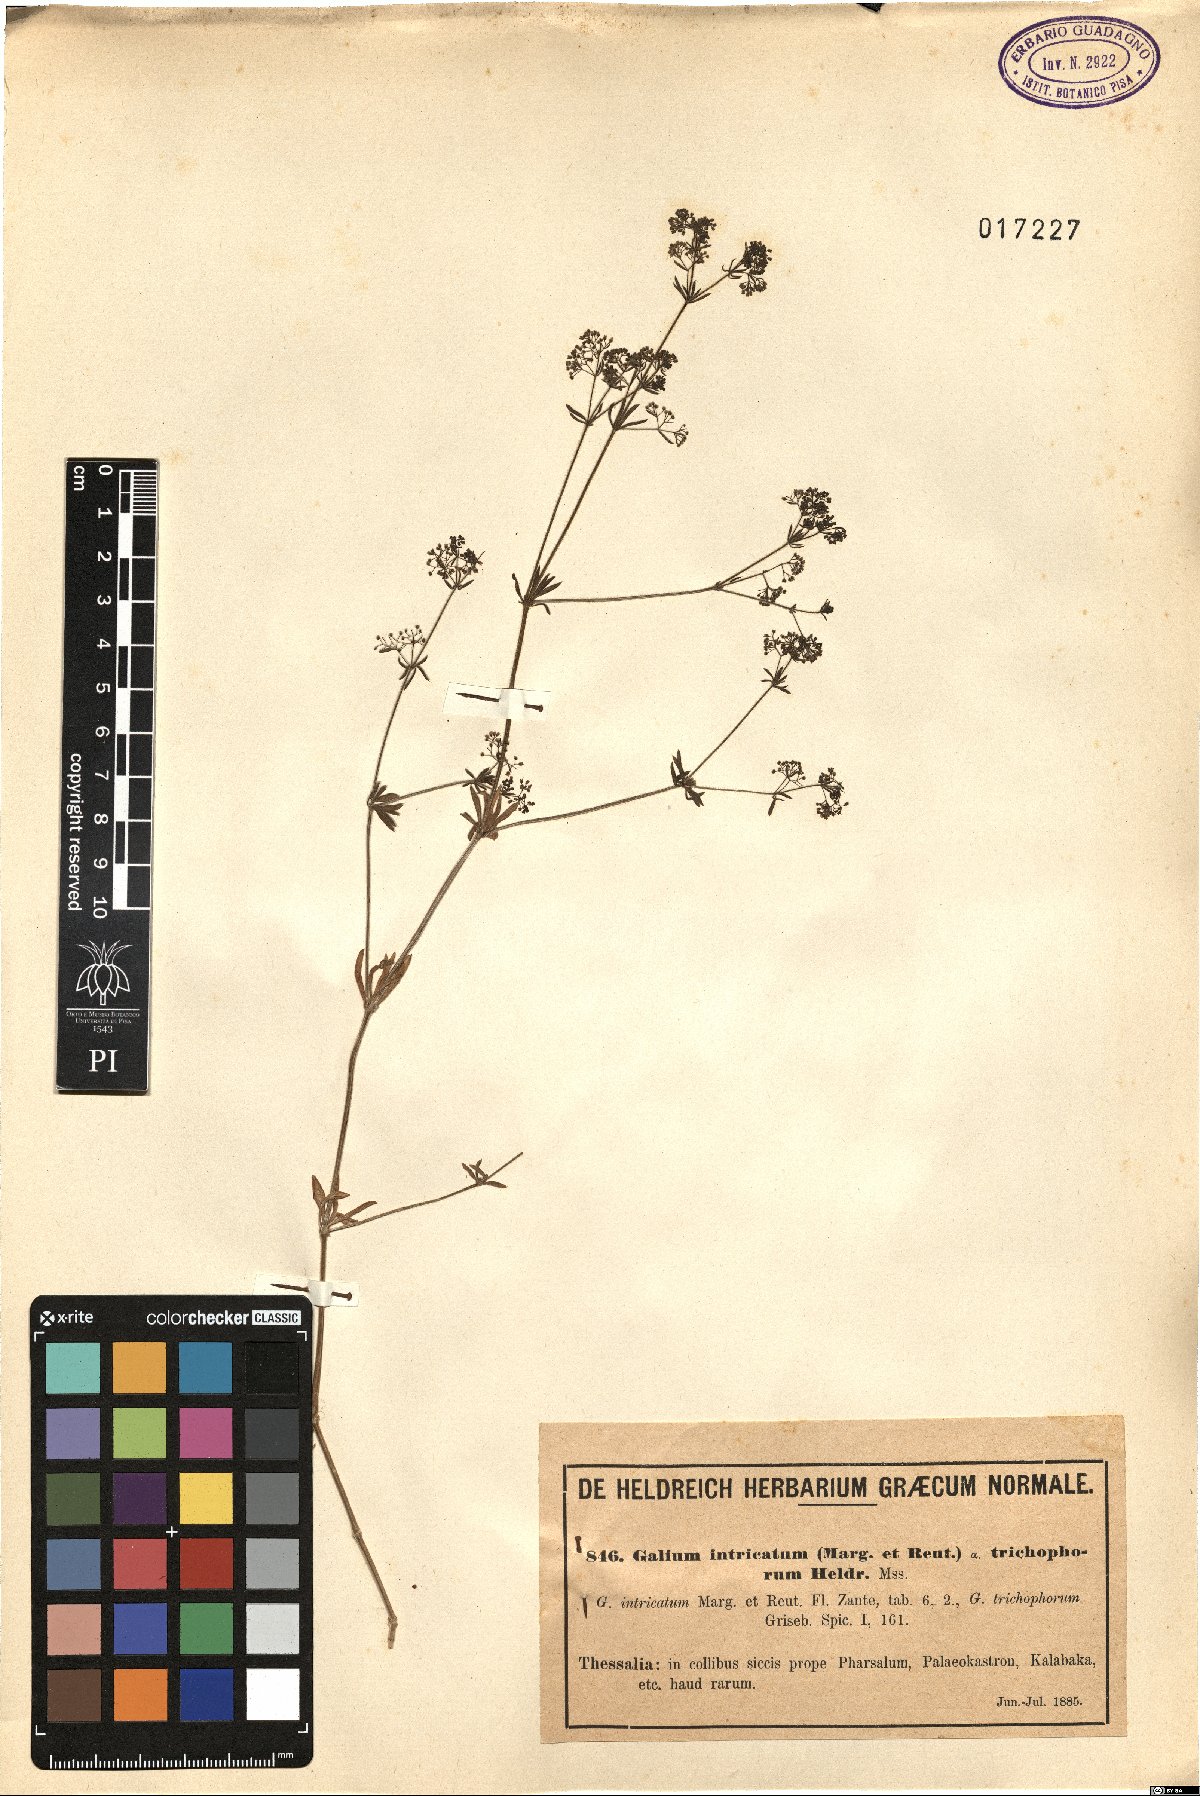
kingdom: Plantae
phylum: Tracheophyta
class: Magnoliopsida
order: Gentianales
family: Rubiaceae
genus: Galium
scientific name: Galium intricatum
